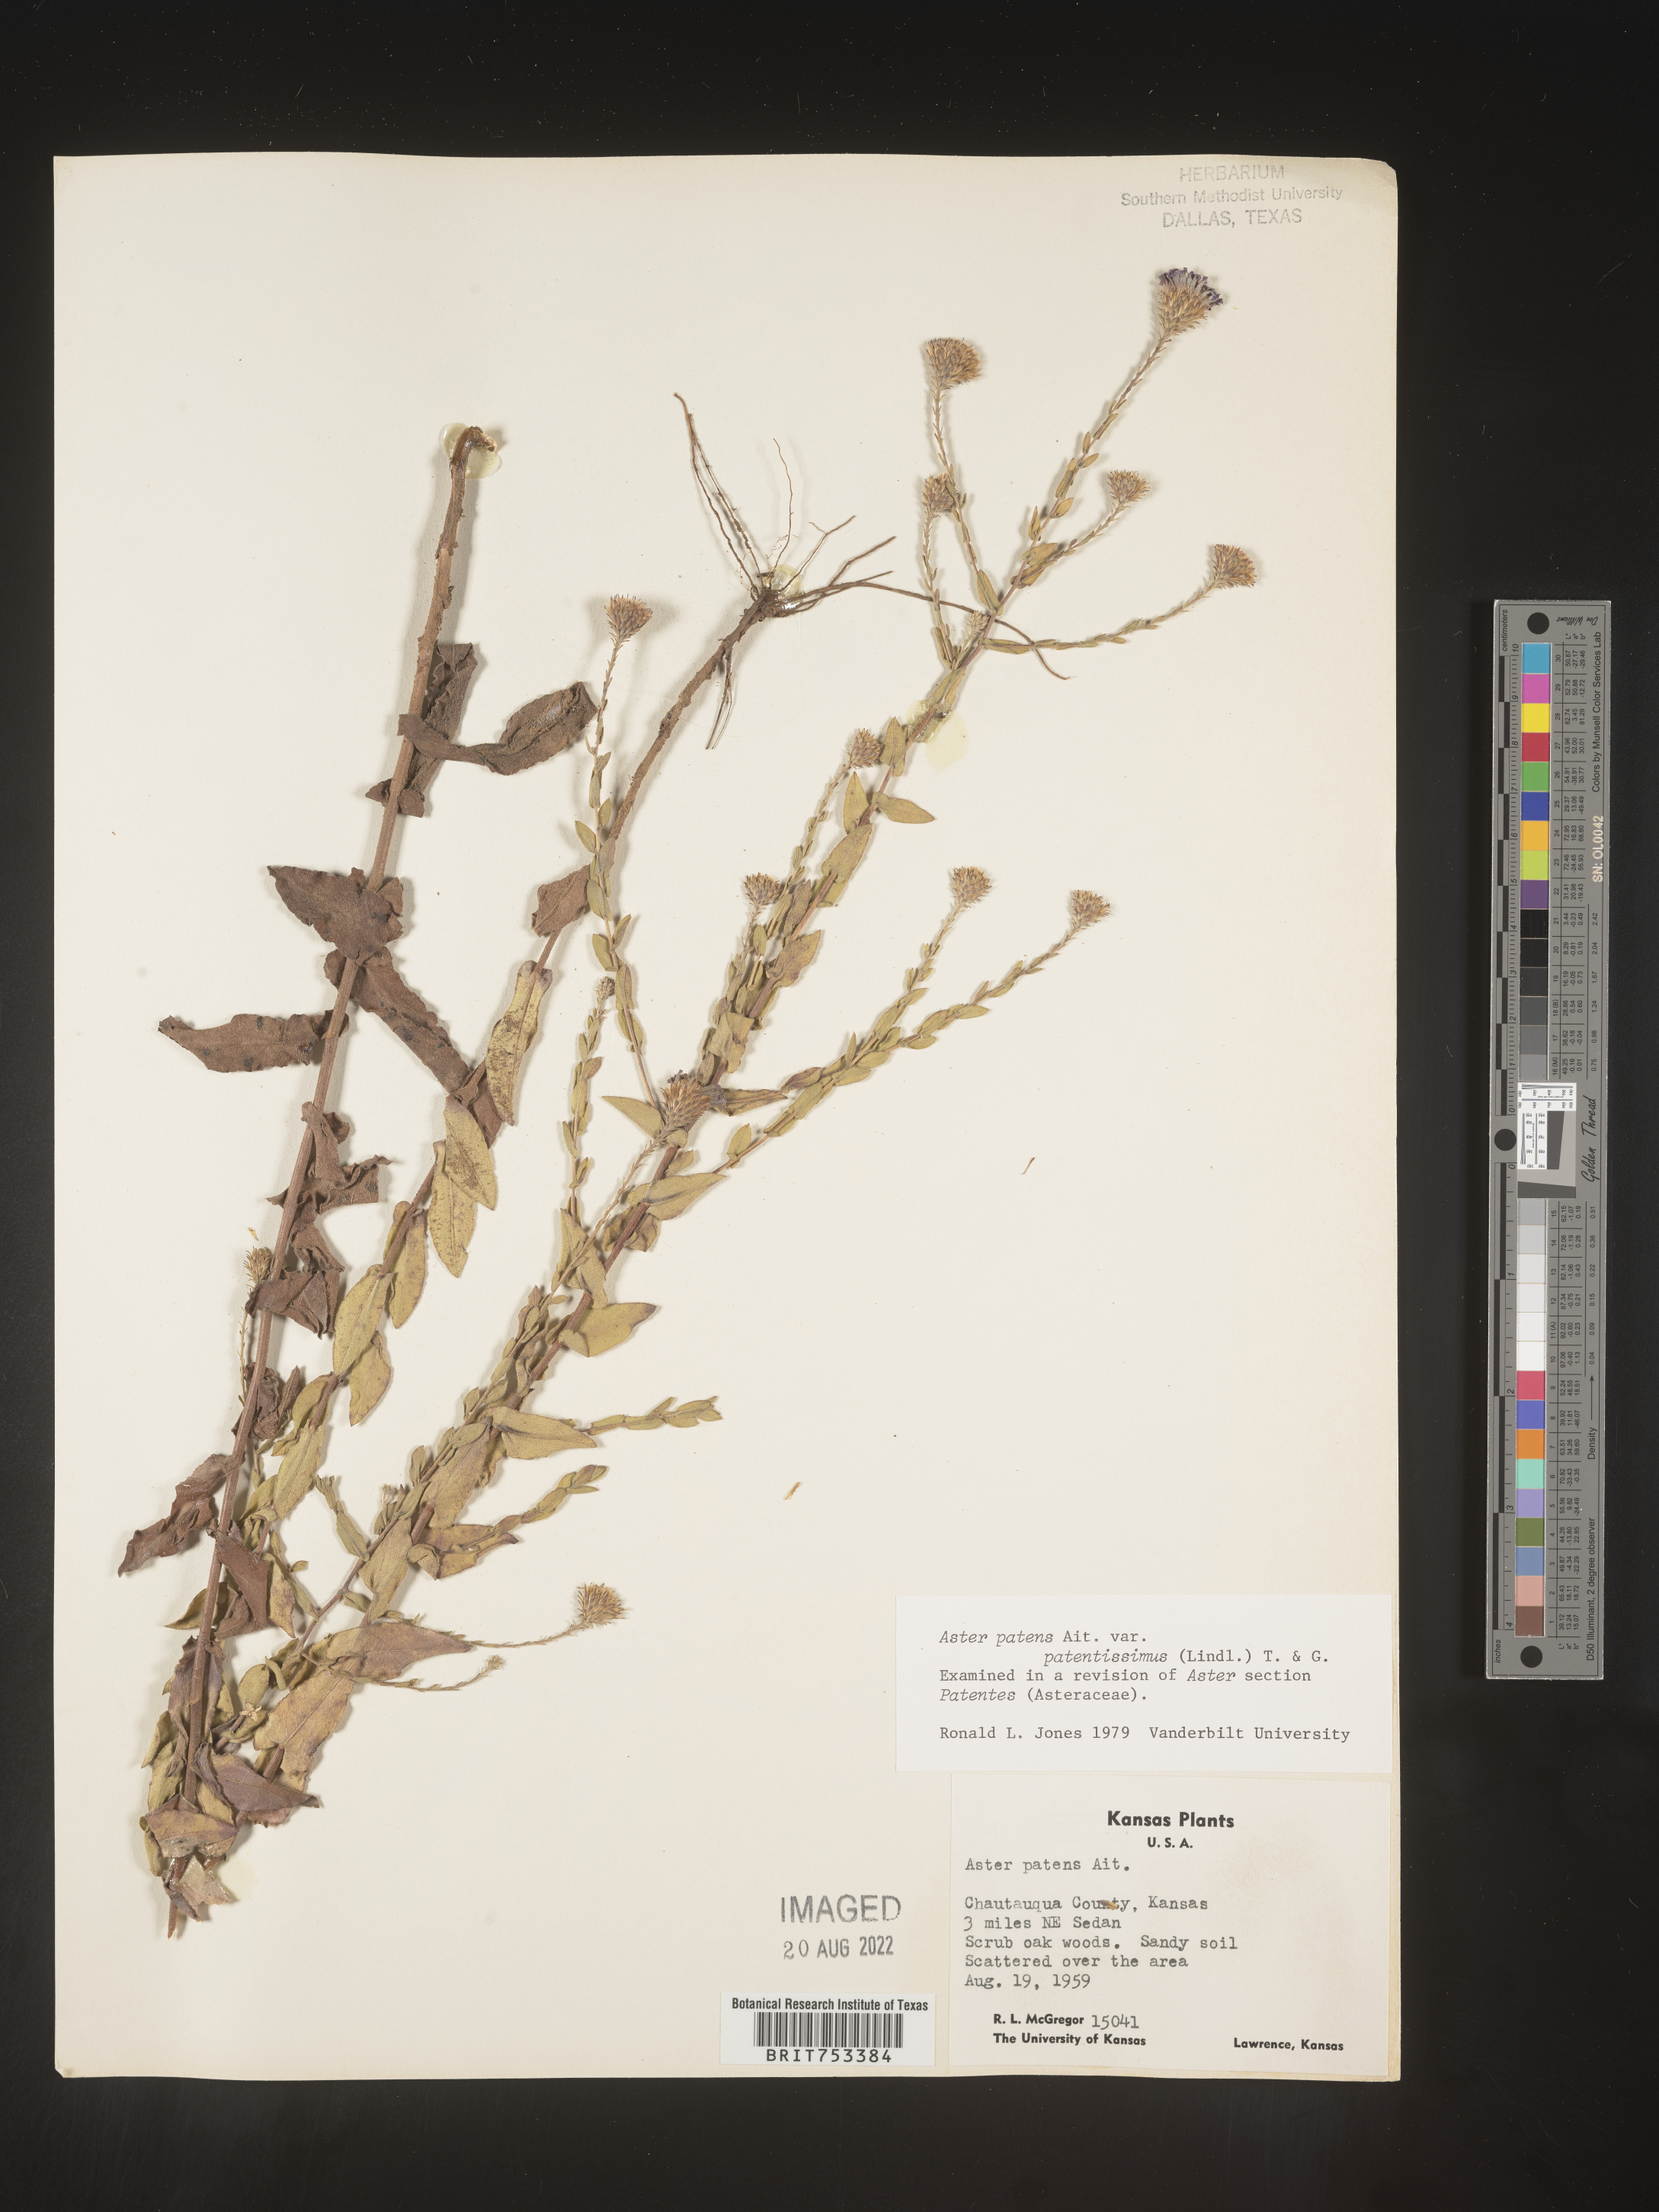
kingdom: Plantae
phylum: Tracheophyta
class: Magnoliopsida
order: Asterales
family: Asteraceae
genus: Symphyotrichum
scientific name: Symphyotrichum patens
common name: Late purple aster
